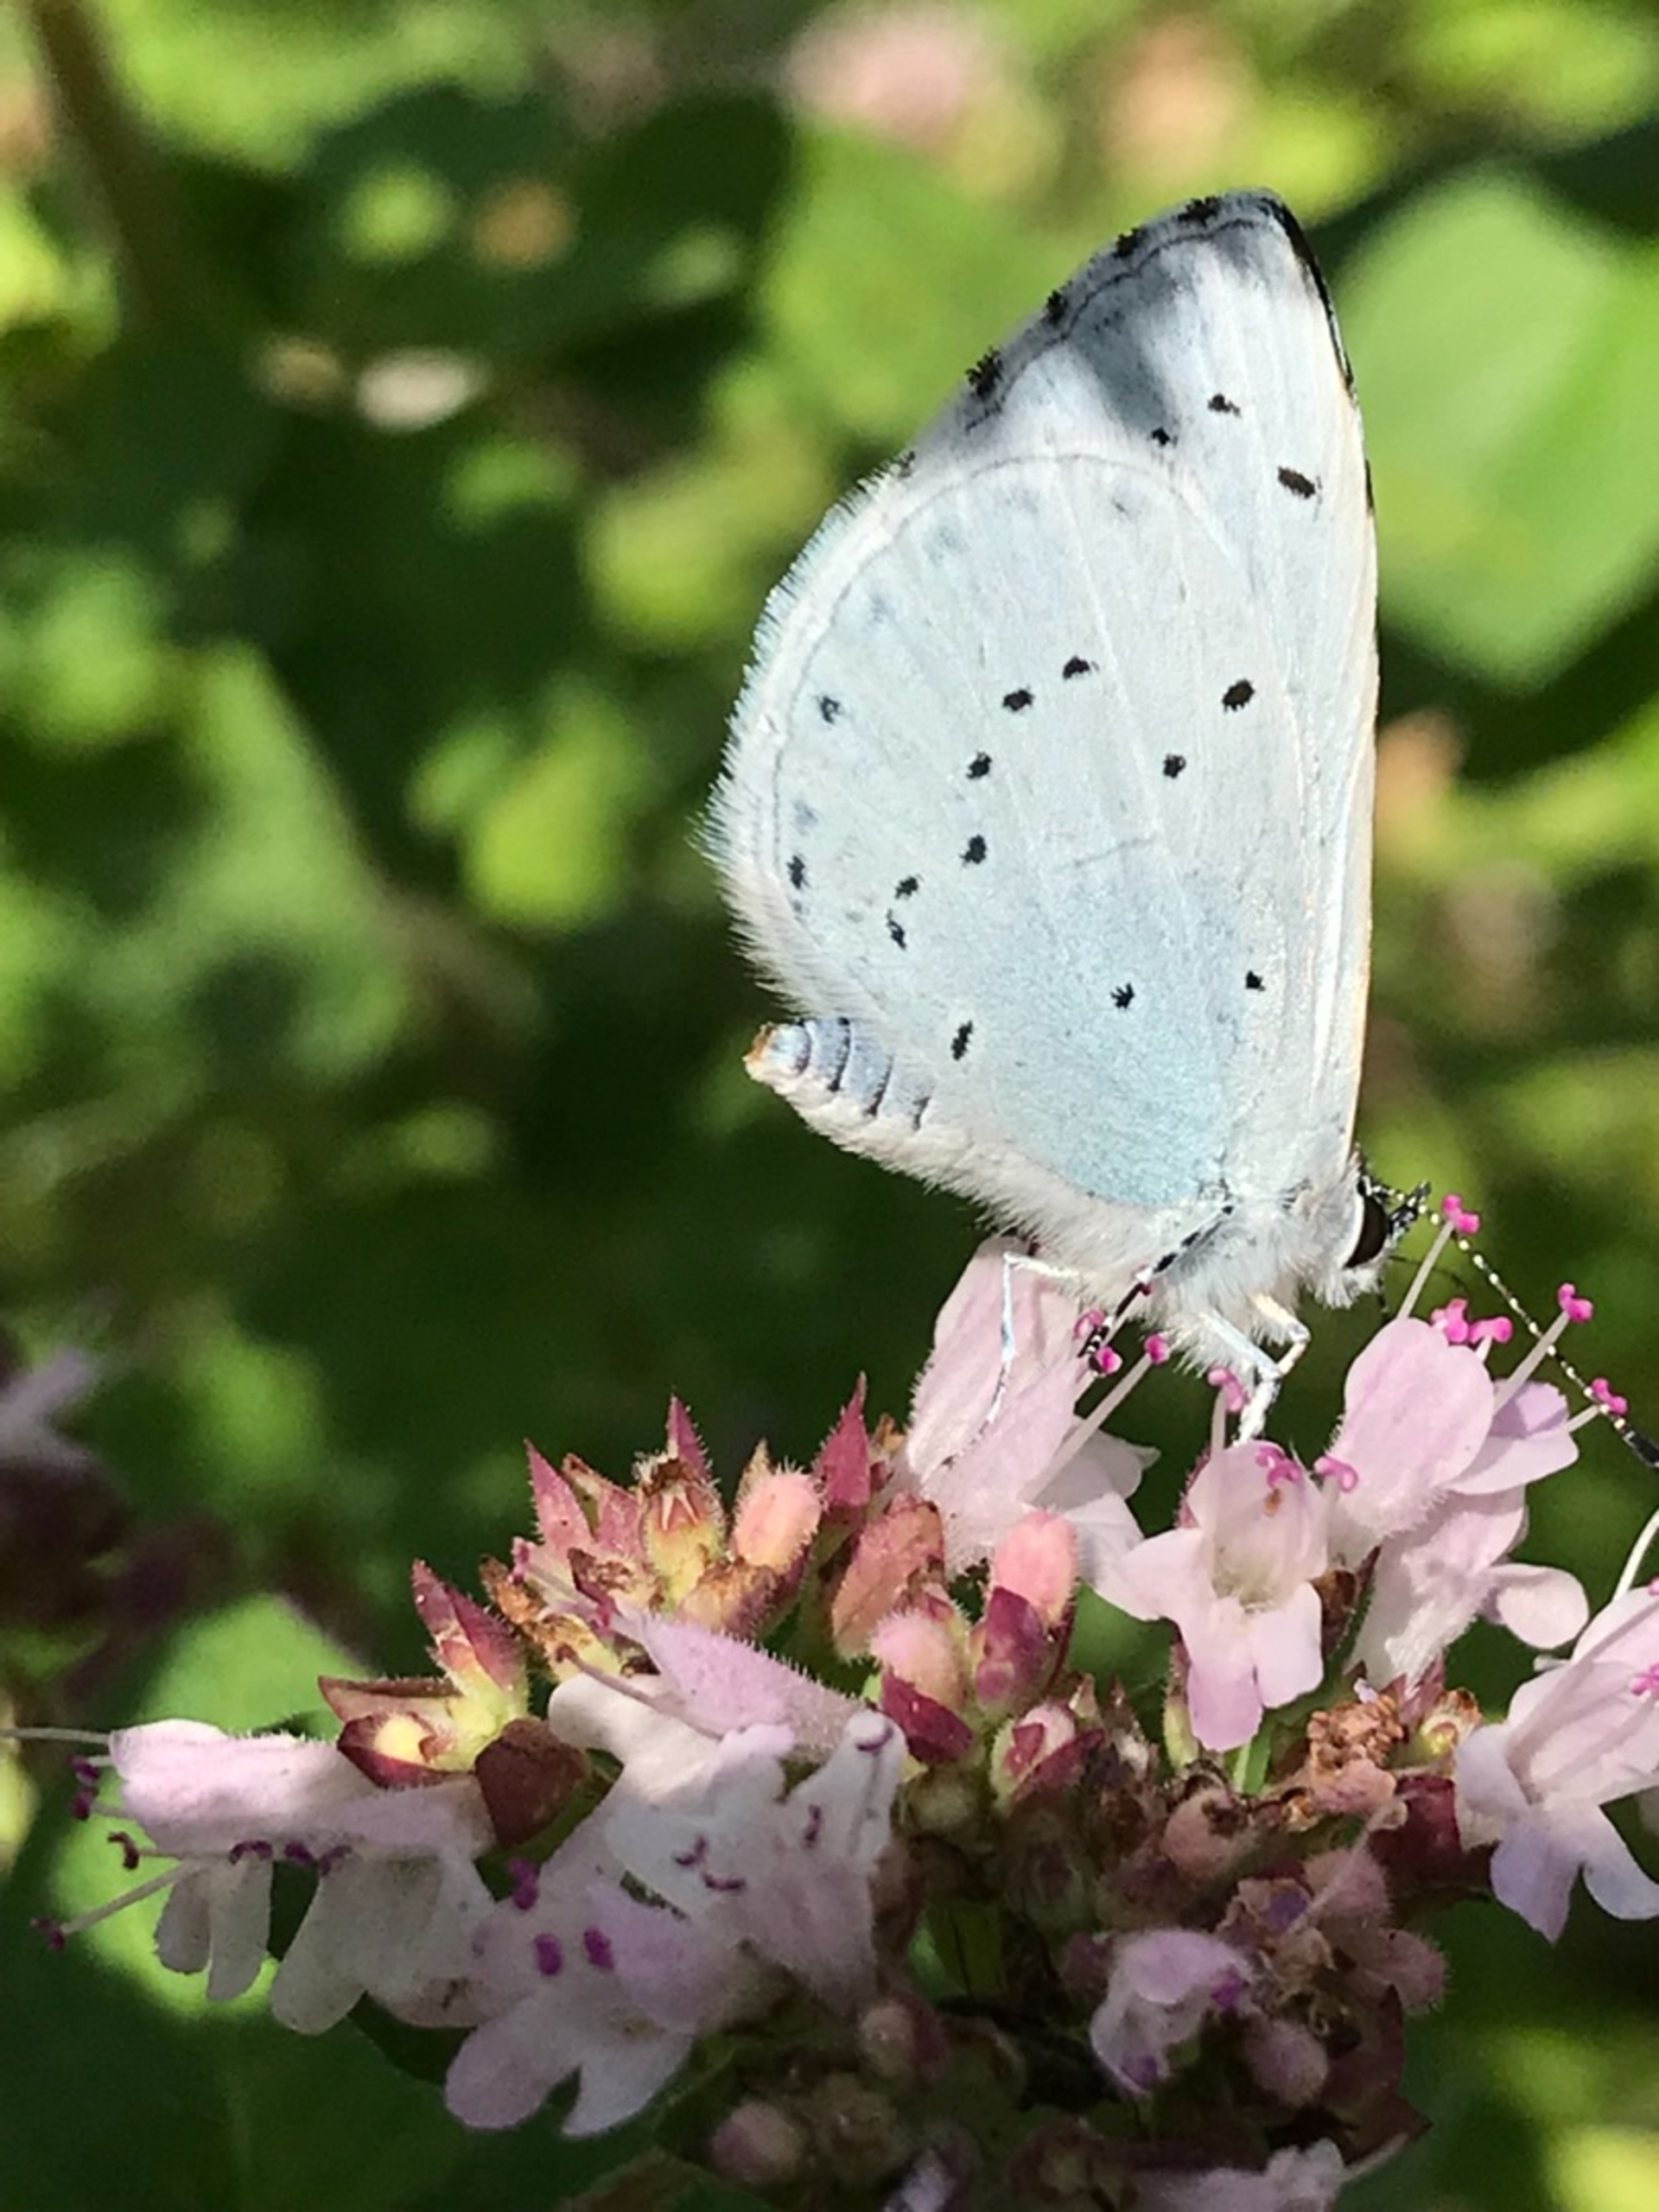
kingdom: Animalia
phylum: Arthropoda
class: Insecta
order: Lepidoptera
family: Lycaenidae
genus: Celastrina
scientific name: Celastrina argiolus
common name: Skovblåfugl
